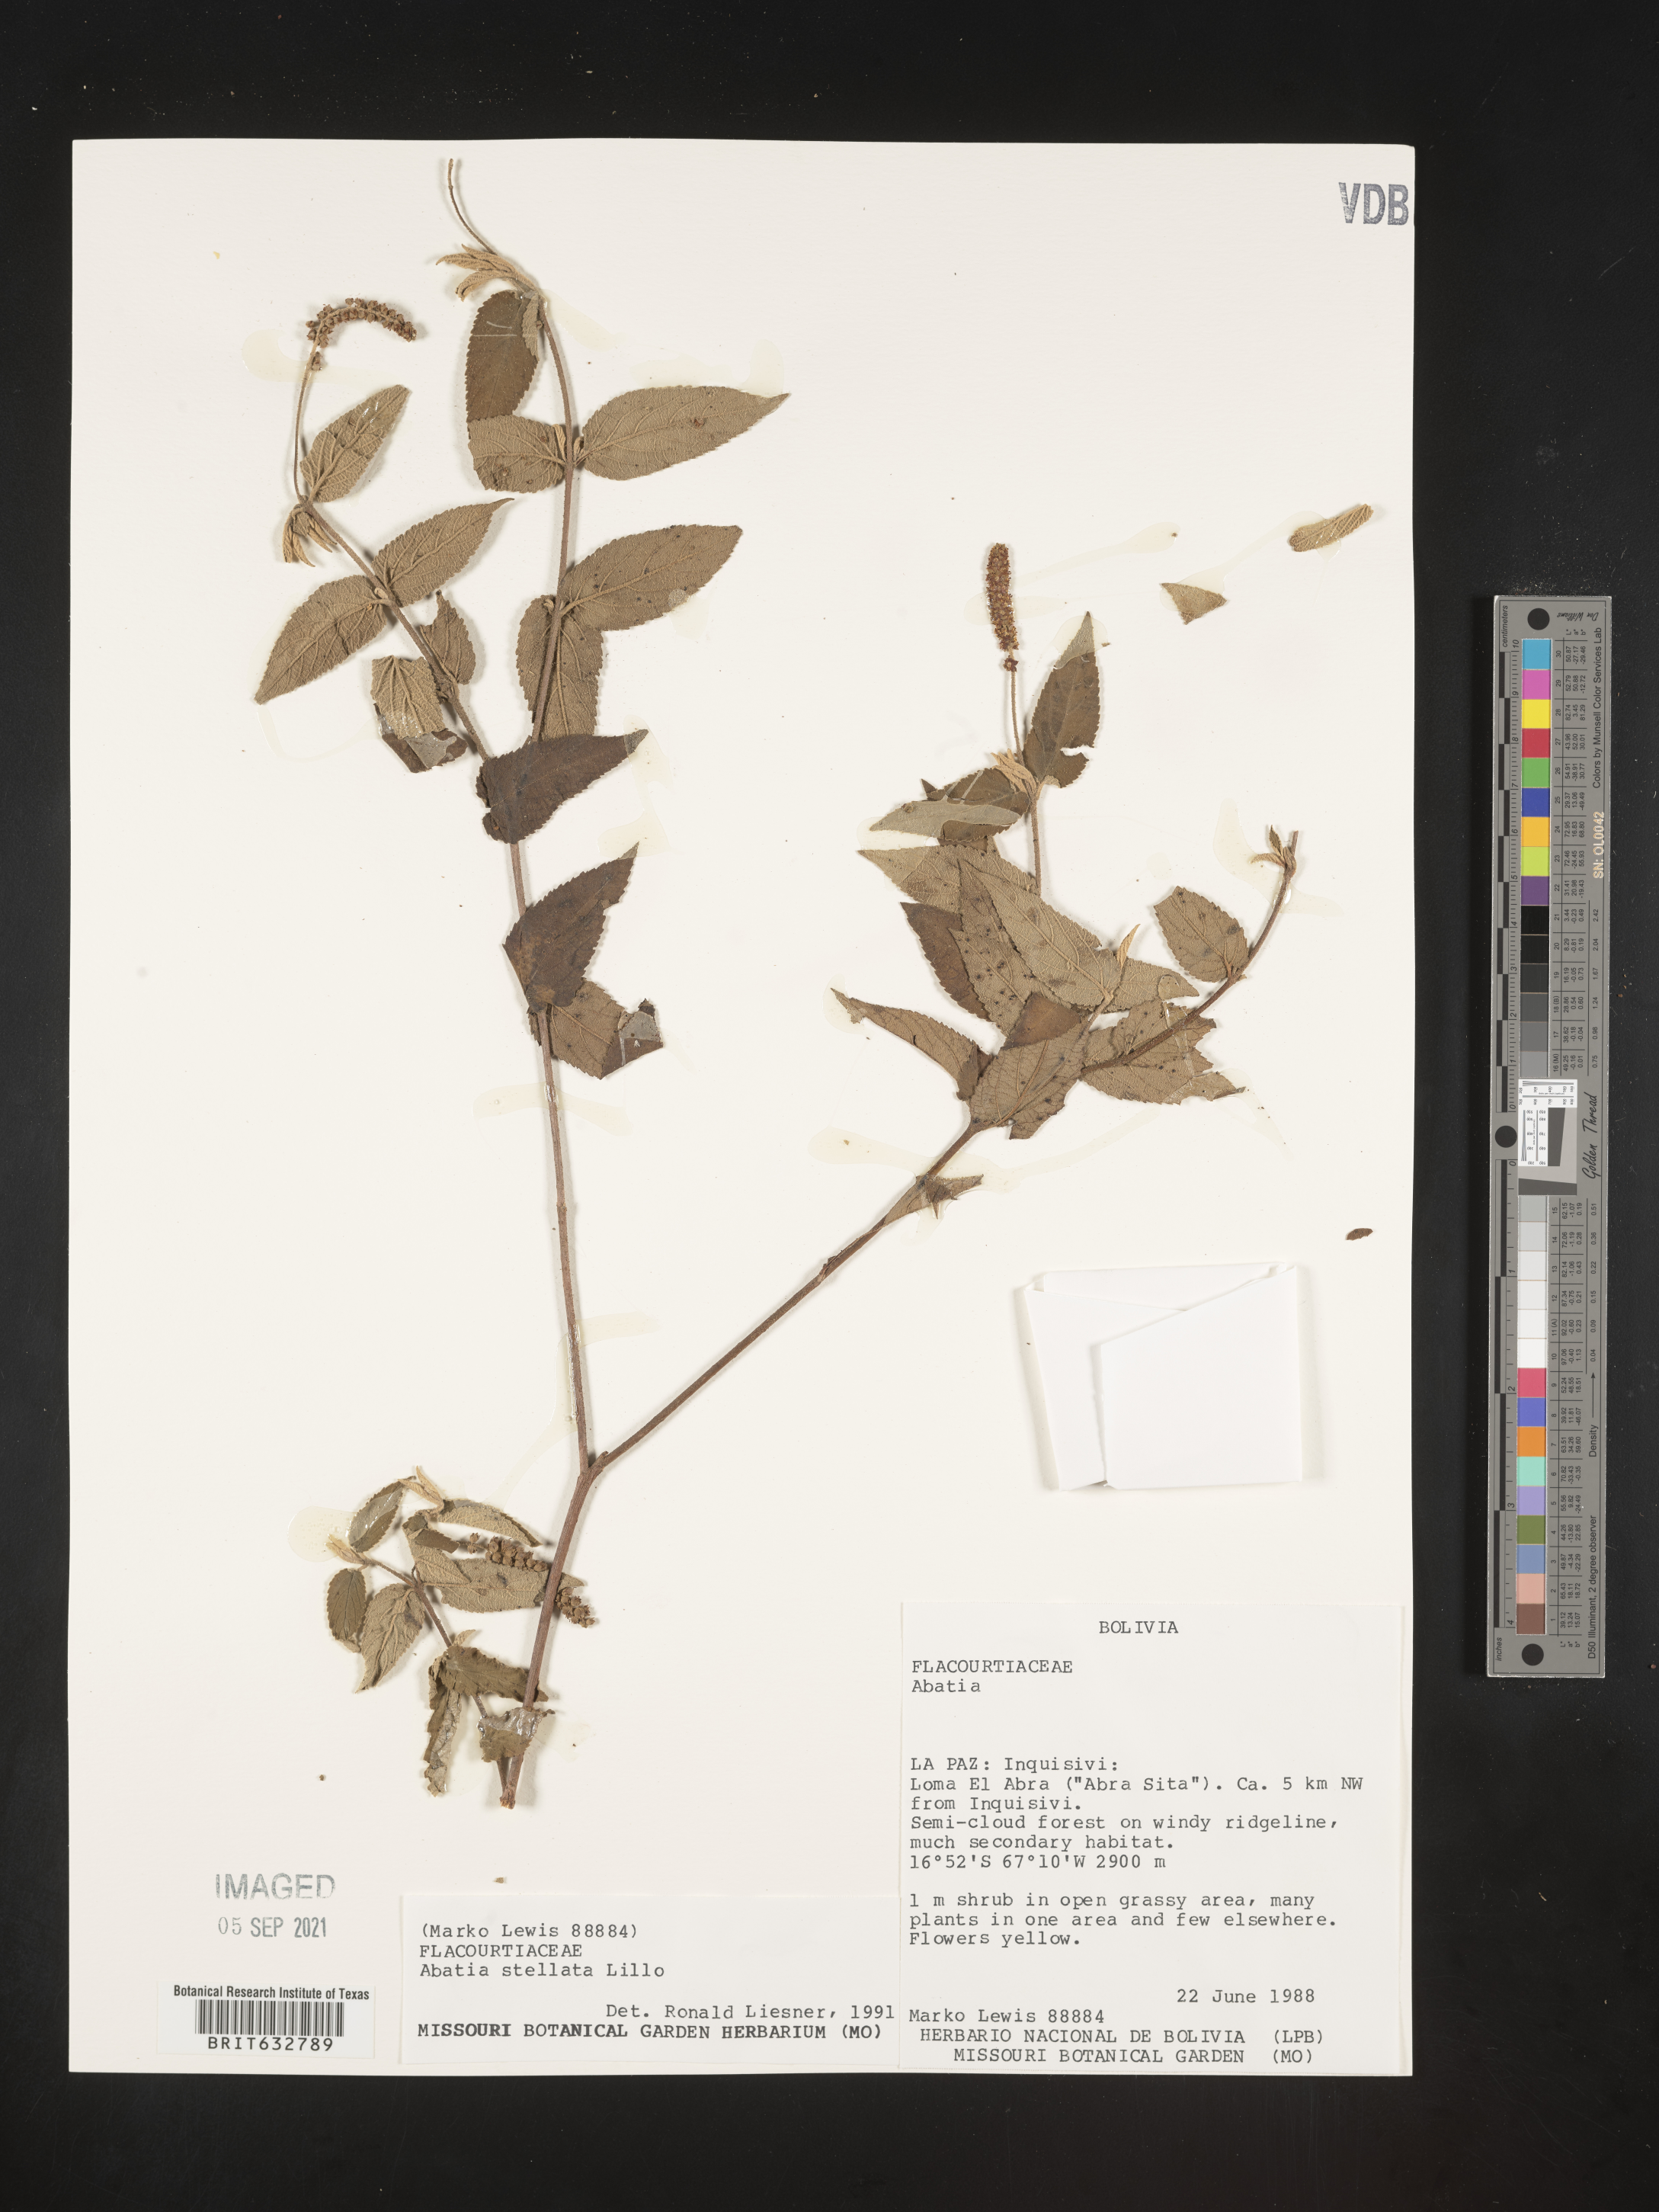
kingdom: Plantae
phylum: Tracheophyta
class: Magnoliopsida
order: Malpighiales
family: Salicaceae
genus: Abatia
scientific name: Abatia
